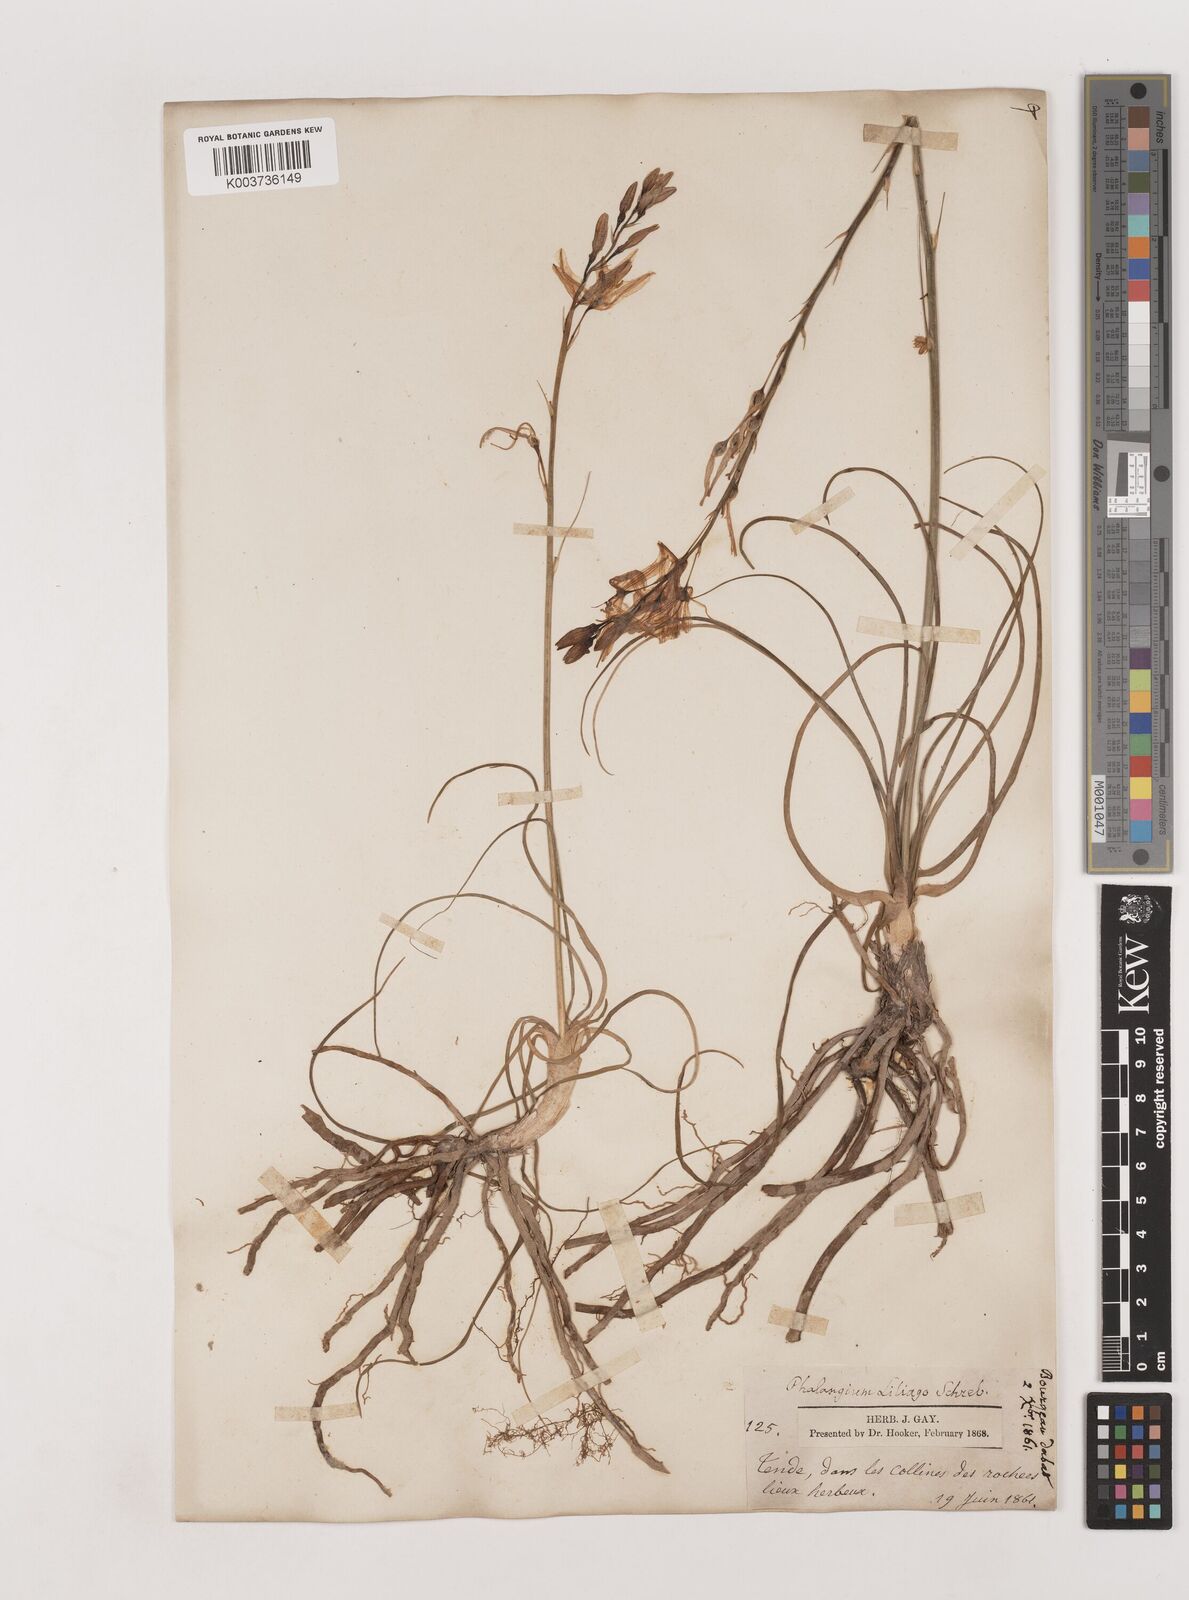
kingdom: Plantae
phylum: Tracheophyta
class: Liliopsida
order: Asparagales
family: Asparagaceae
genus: Anthericum
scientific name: Anthericum liliago
